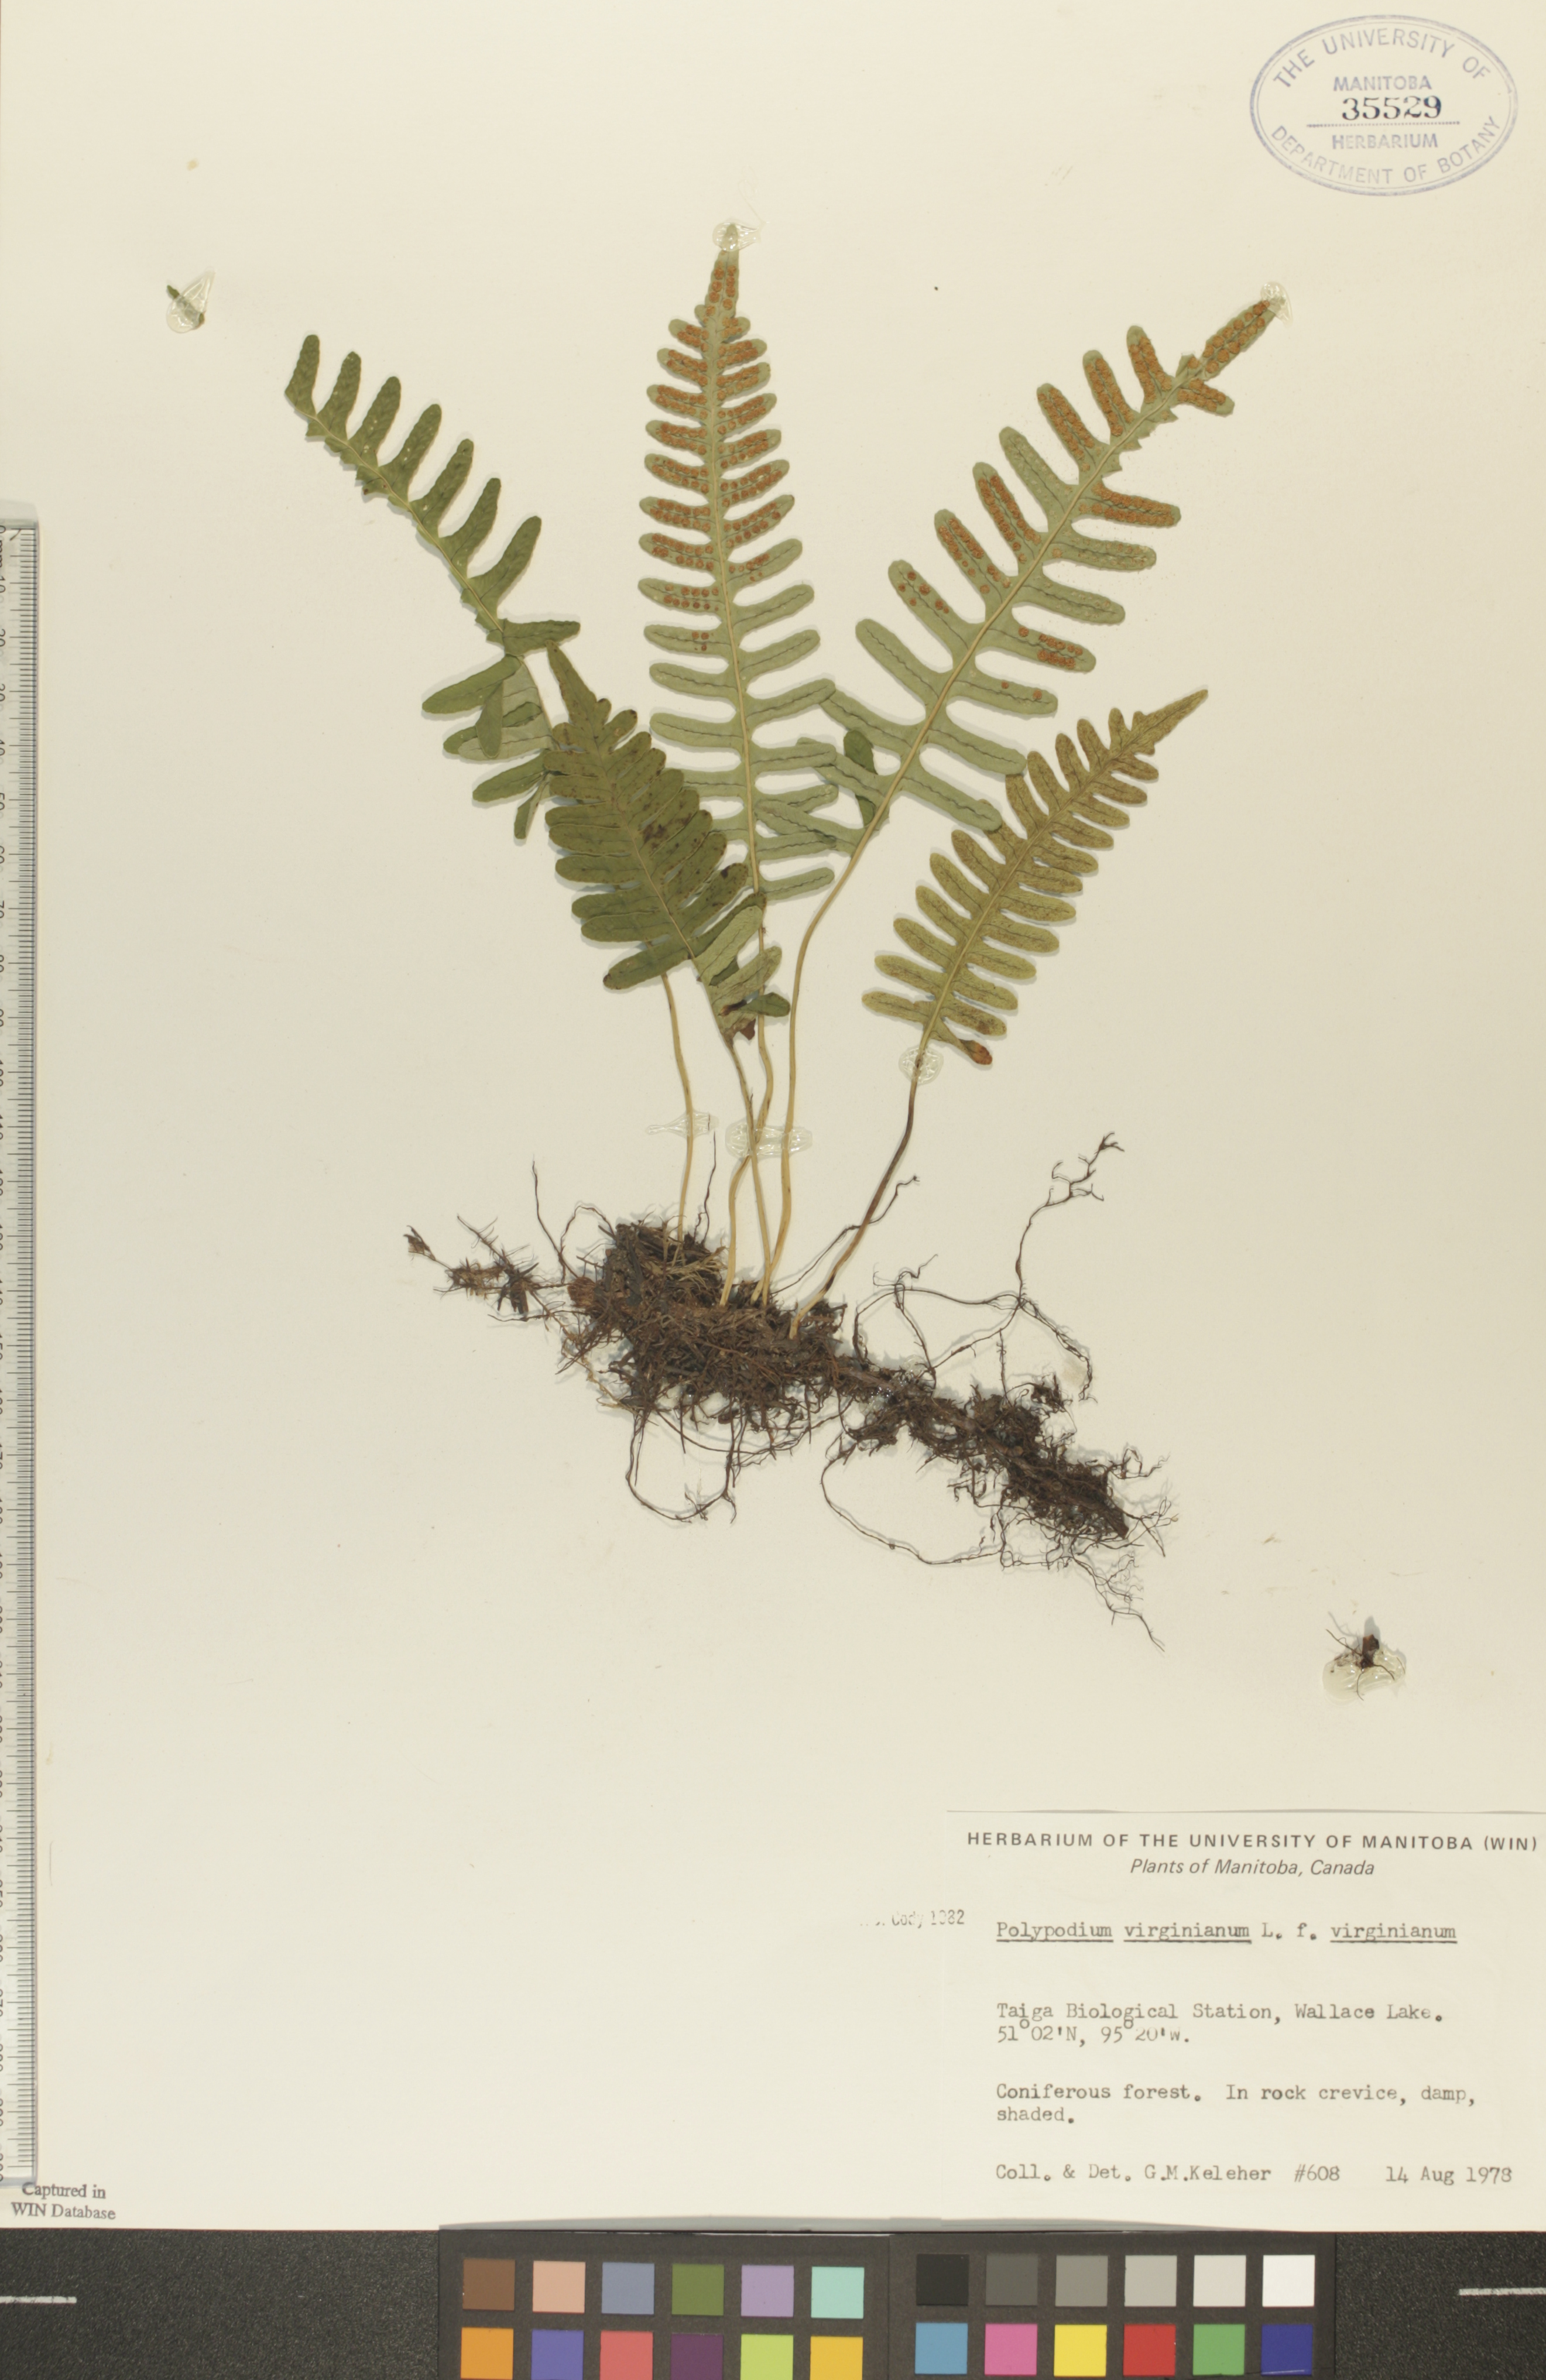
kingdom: Plantae
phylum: Tracheophyta
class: Polypodiopsida
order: Polypodiales
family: Polypodiaceae
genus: Polypodium
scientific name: Polypodium virginianum
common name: American wall fern
